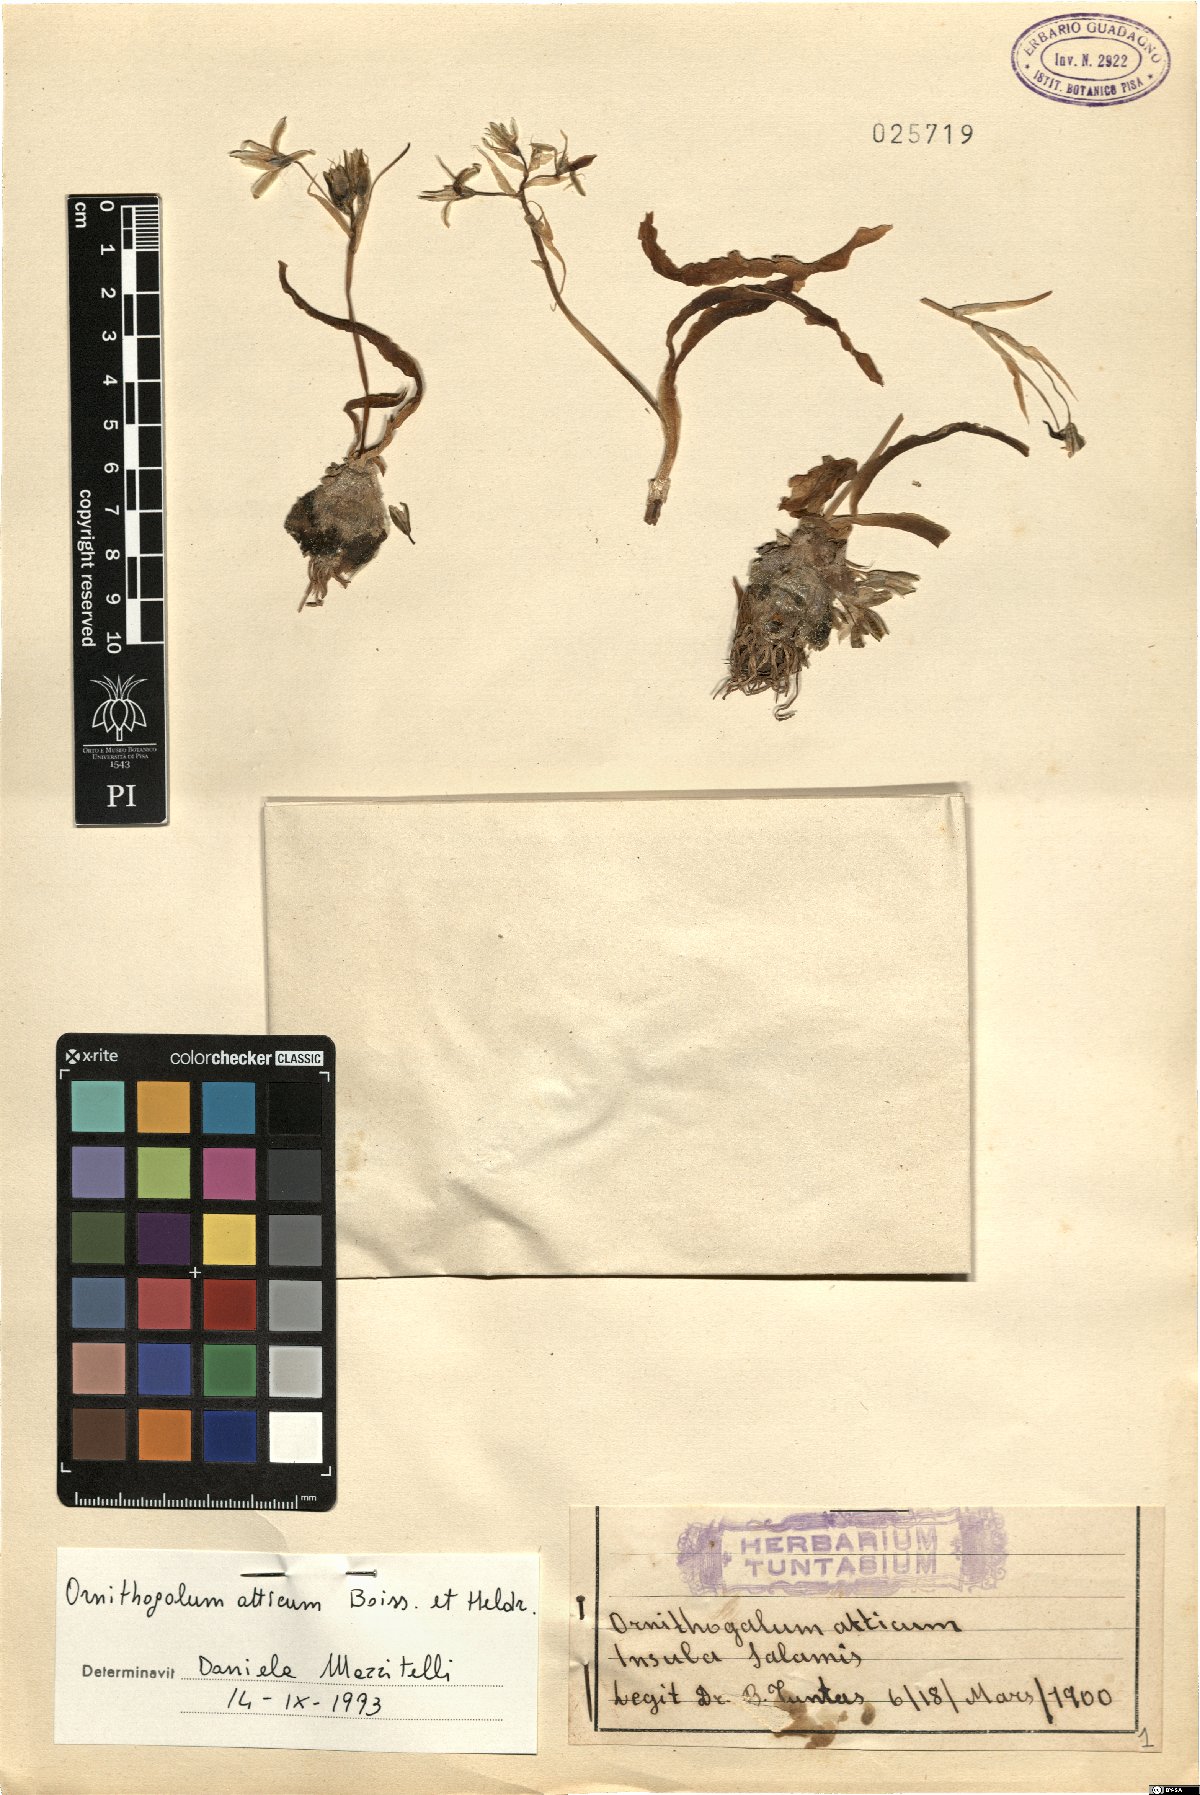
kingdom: Plantae
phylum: Tracheophyta
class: Liliopsida
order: Asparagales
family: Asparagaceae
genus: Ornithogalum
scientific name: Ornithogalum atticum
